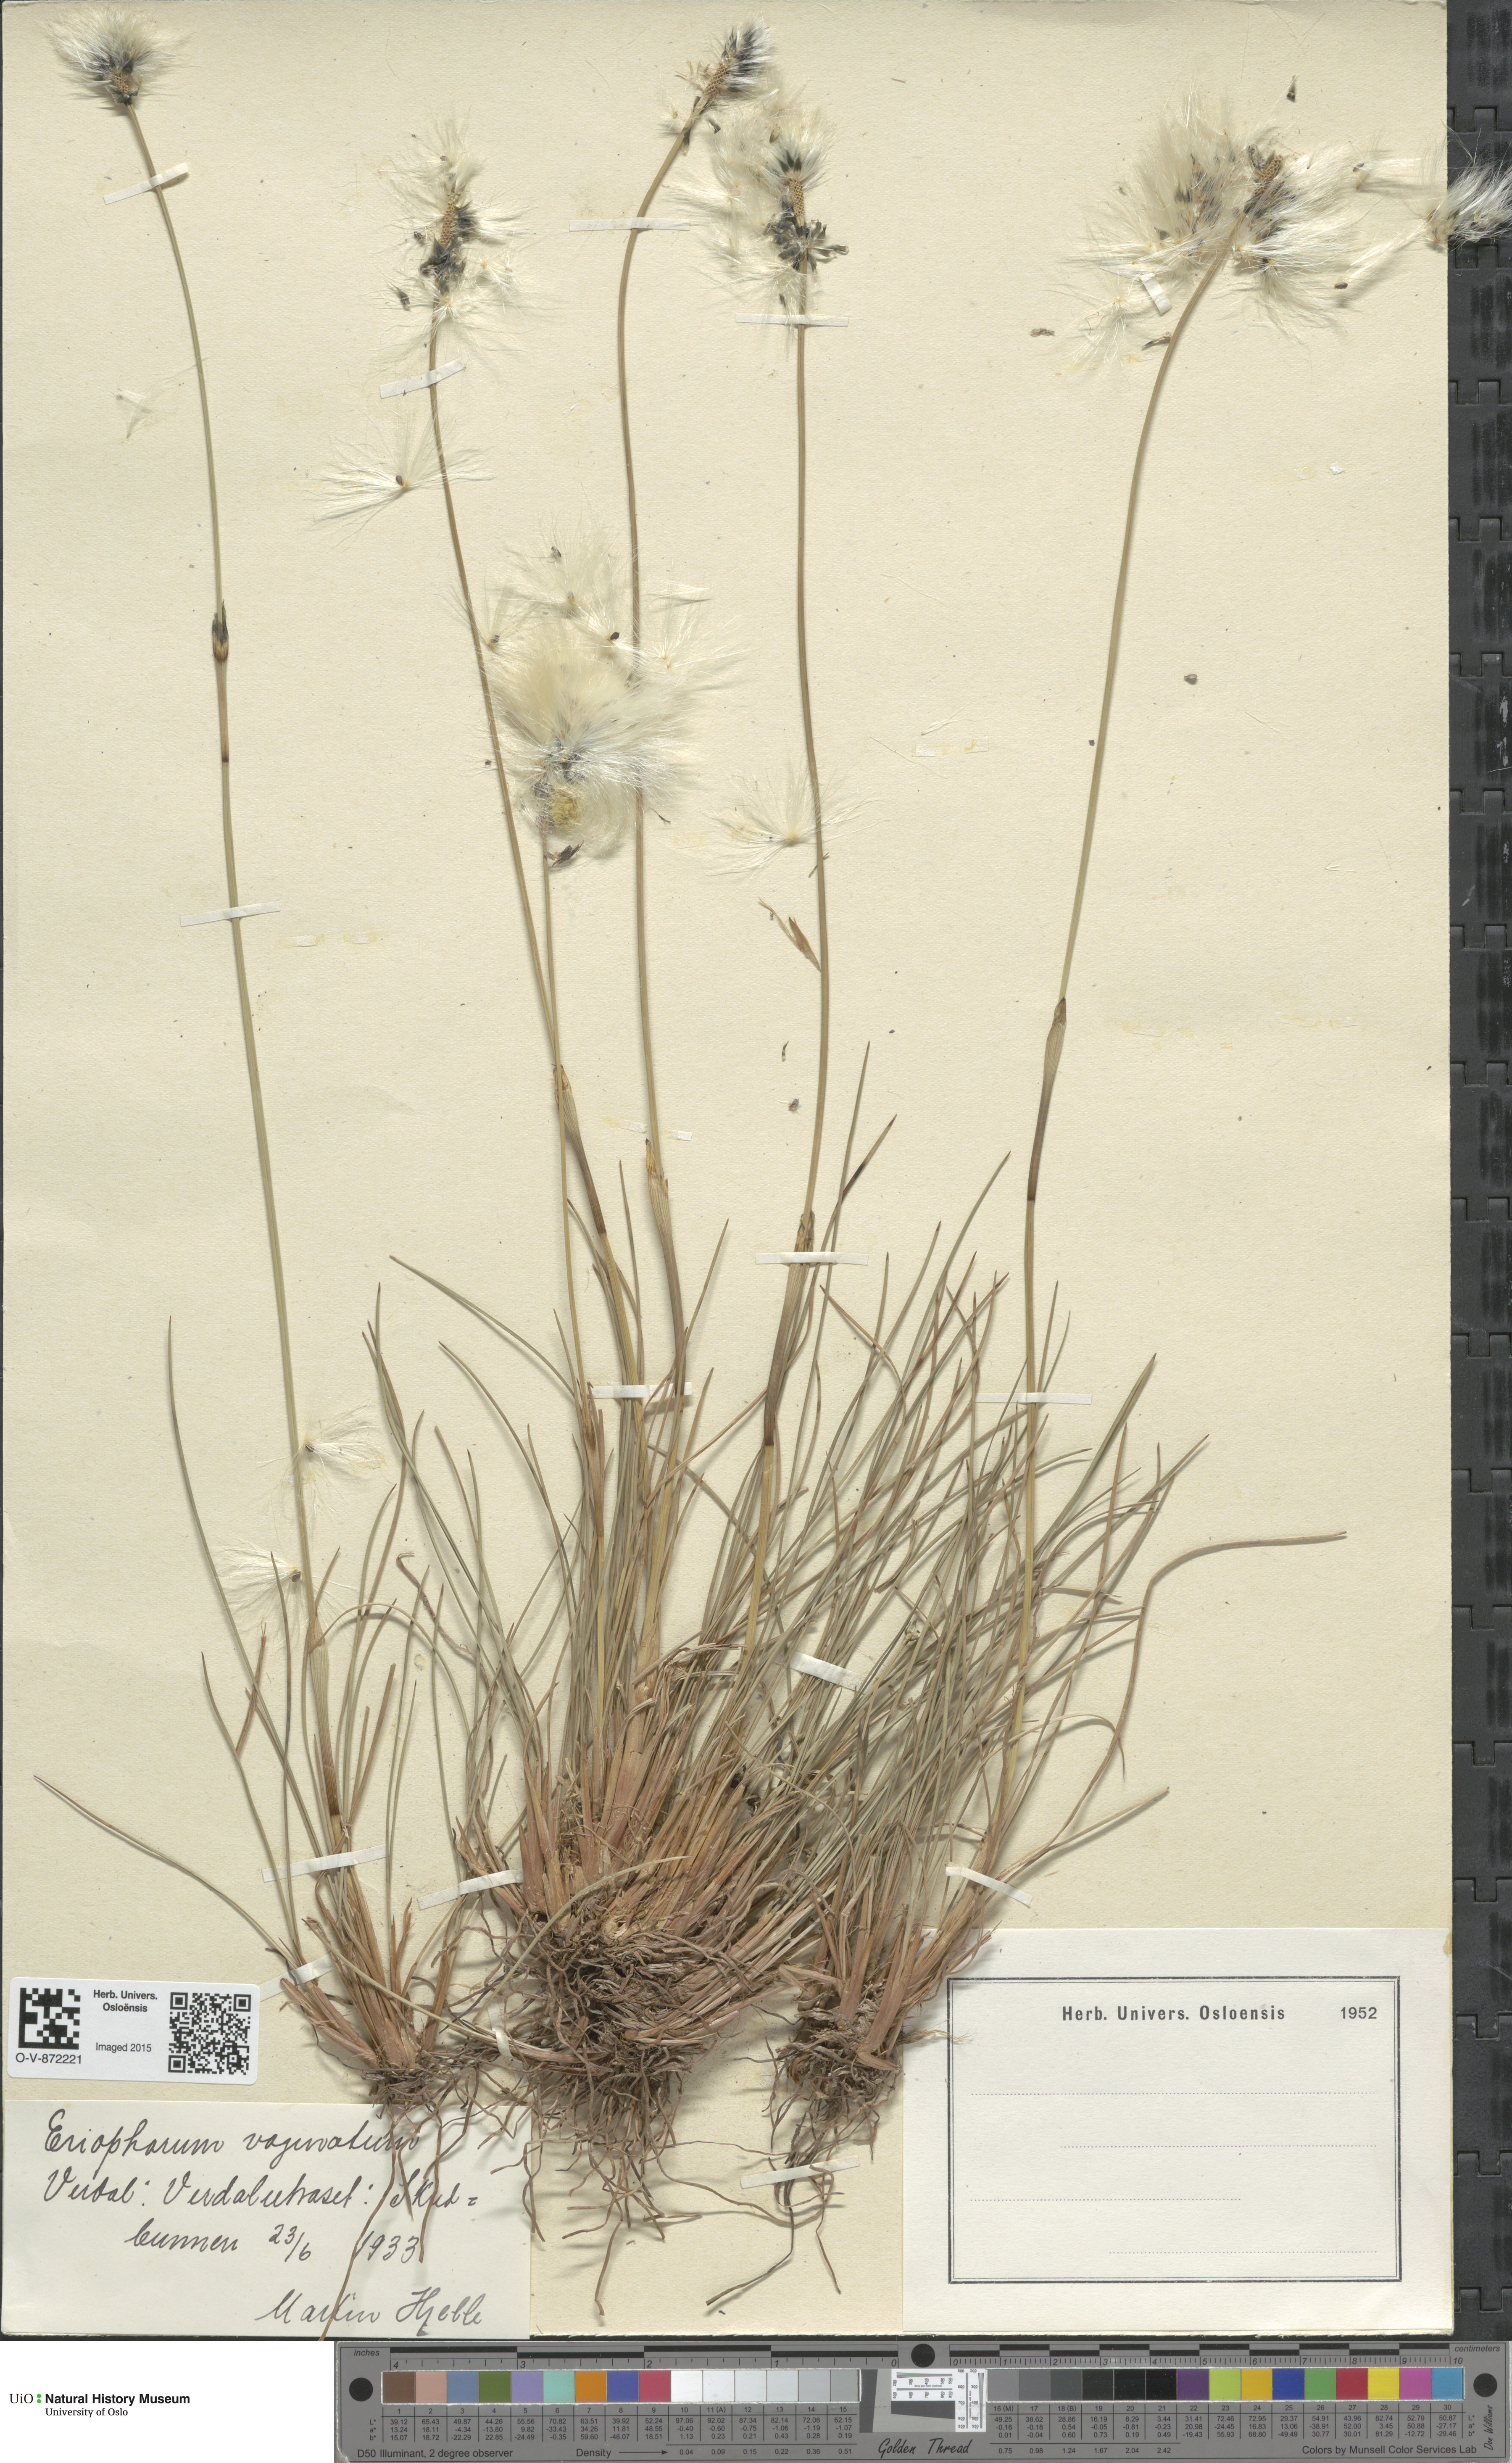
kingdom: Plantae
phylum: Tracheophyta
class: Liliopsida
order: Poales
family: Cyperaceae
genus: Eriophorum
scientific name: Eriophorum vaginatum
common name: Hare's-tail cottongrass
